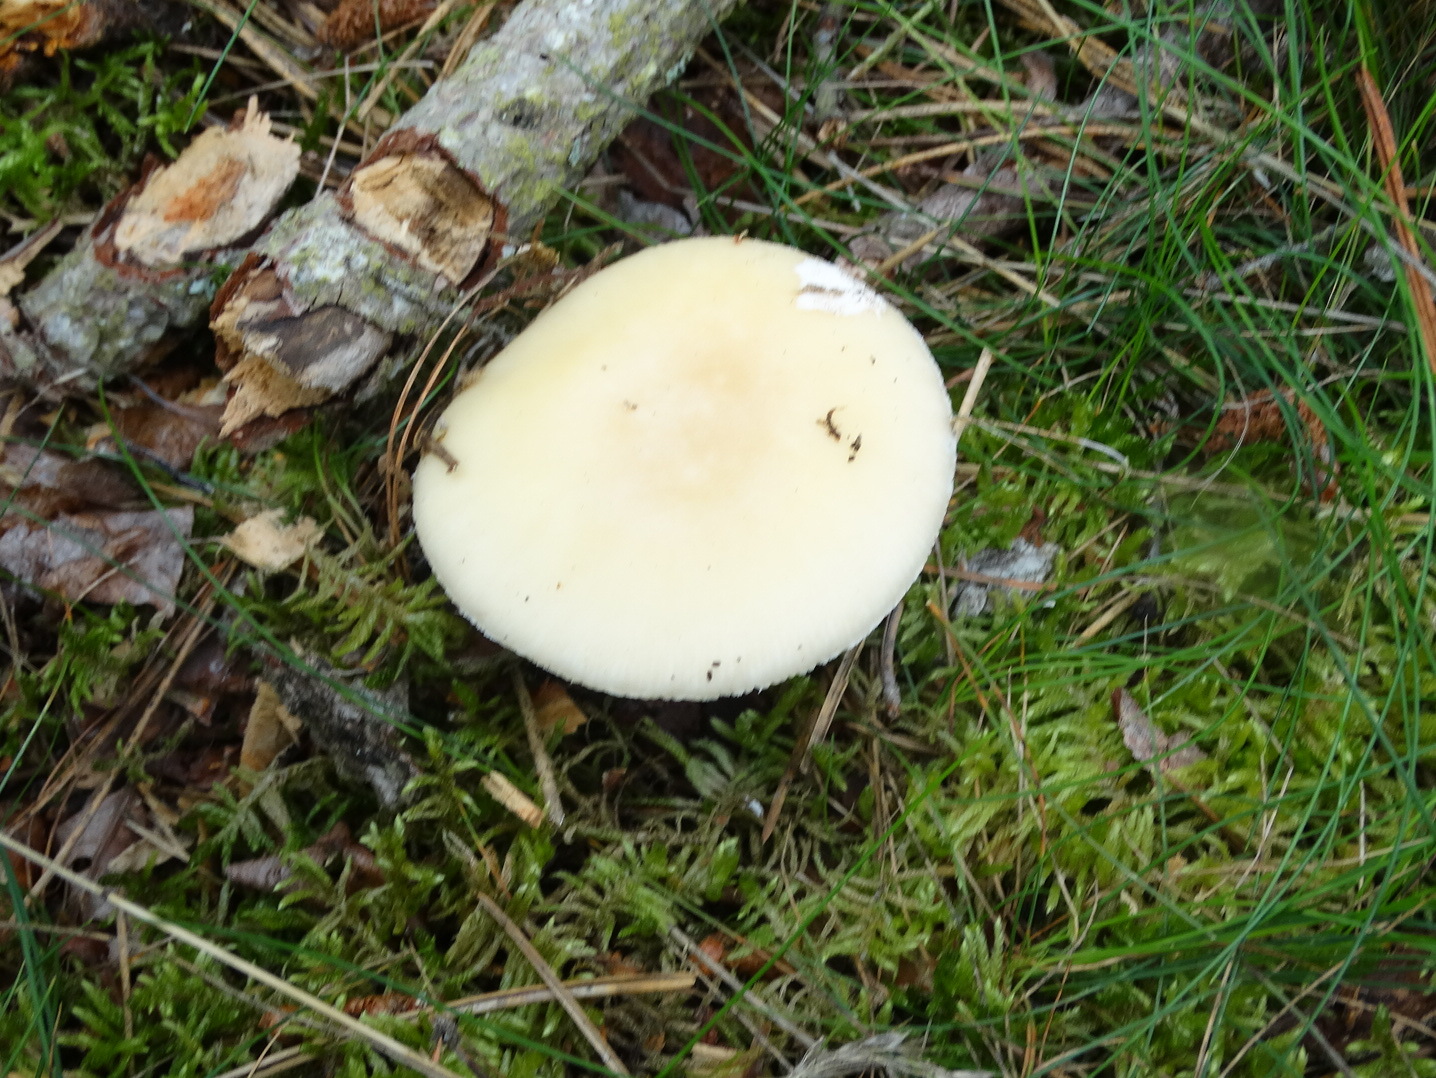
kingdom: Fungi
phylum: Basidiomycota
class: Agaricomycetes
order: Agaricales
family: Amanitaceae
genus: Amanita
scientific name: Amanita gemmata
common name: okkergul fluesvamp
